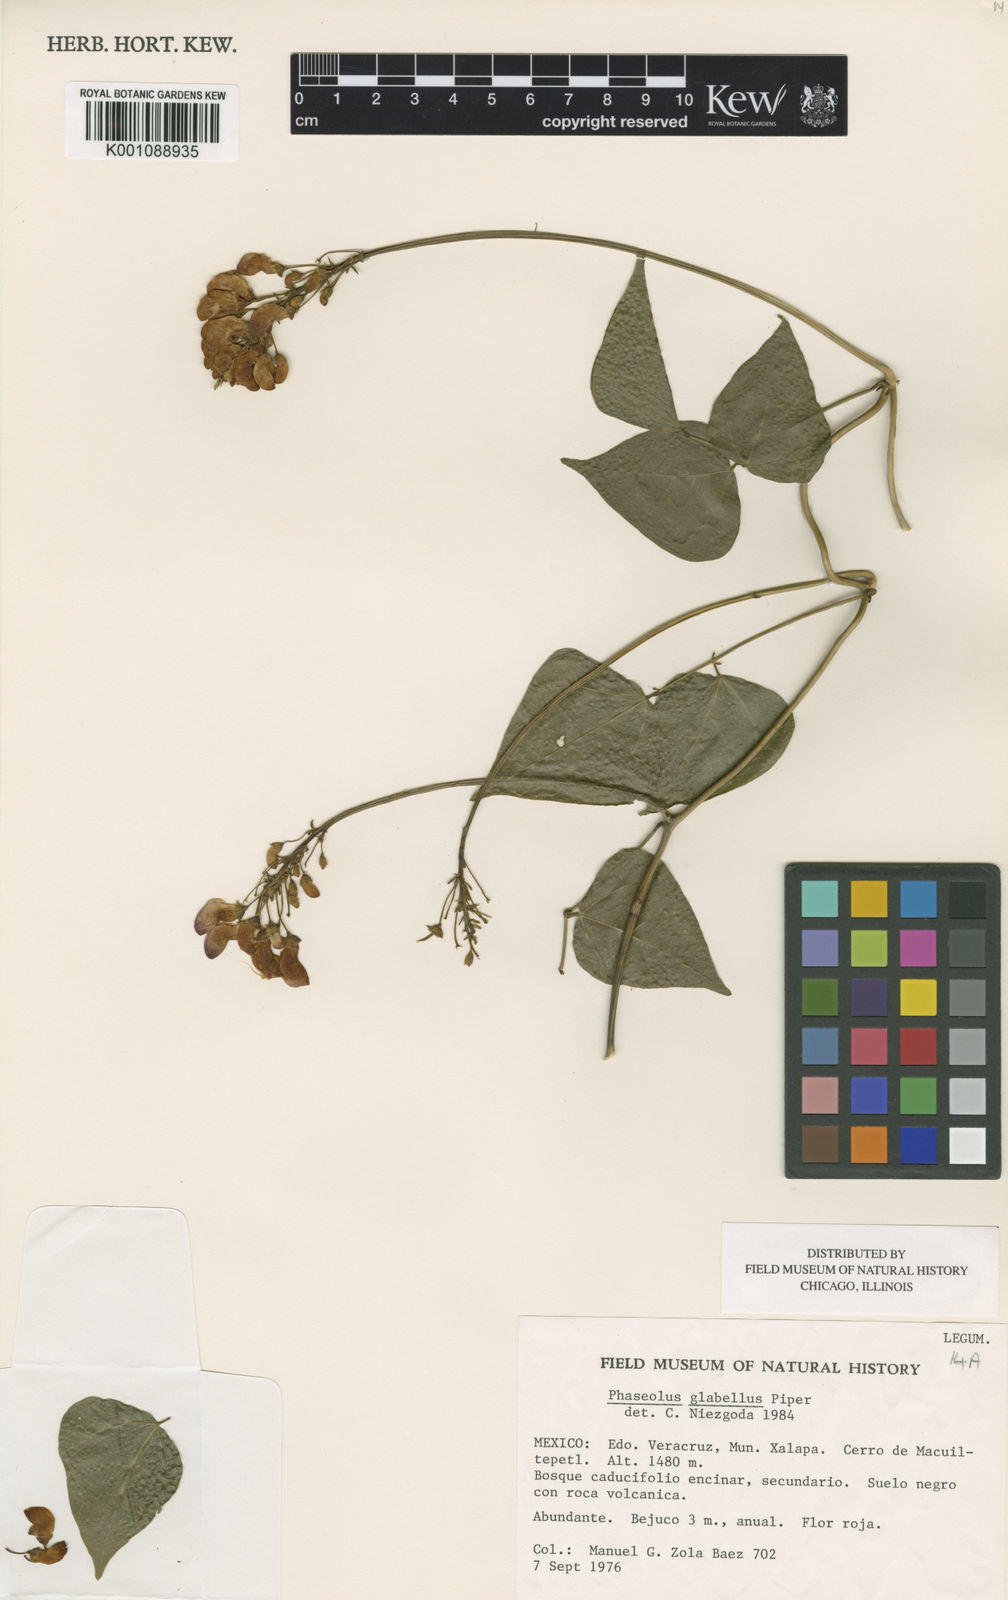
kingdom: Plantae
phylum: Tracheophyta
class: Magnoliopsida
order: Fabales
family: Fabaceae
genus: Phaseolus
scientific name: Phaseolus glabellus
